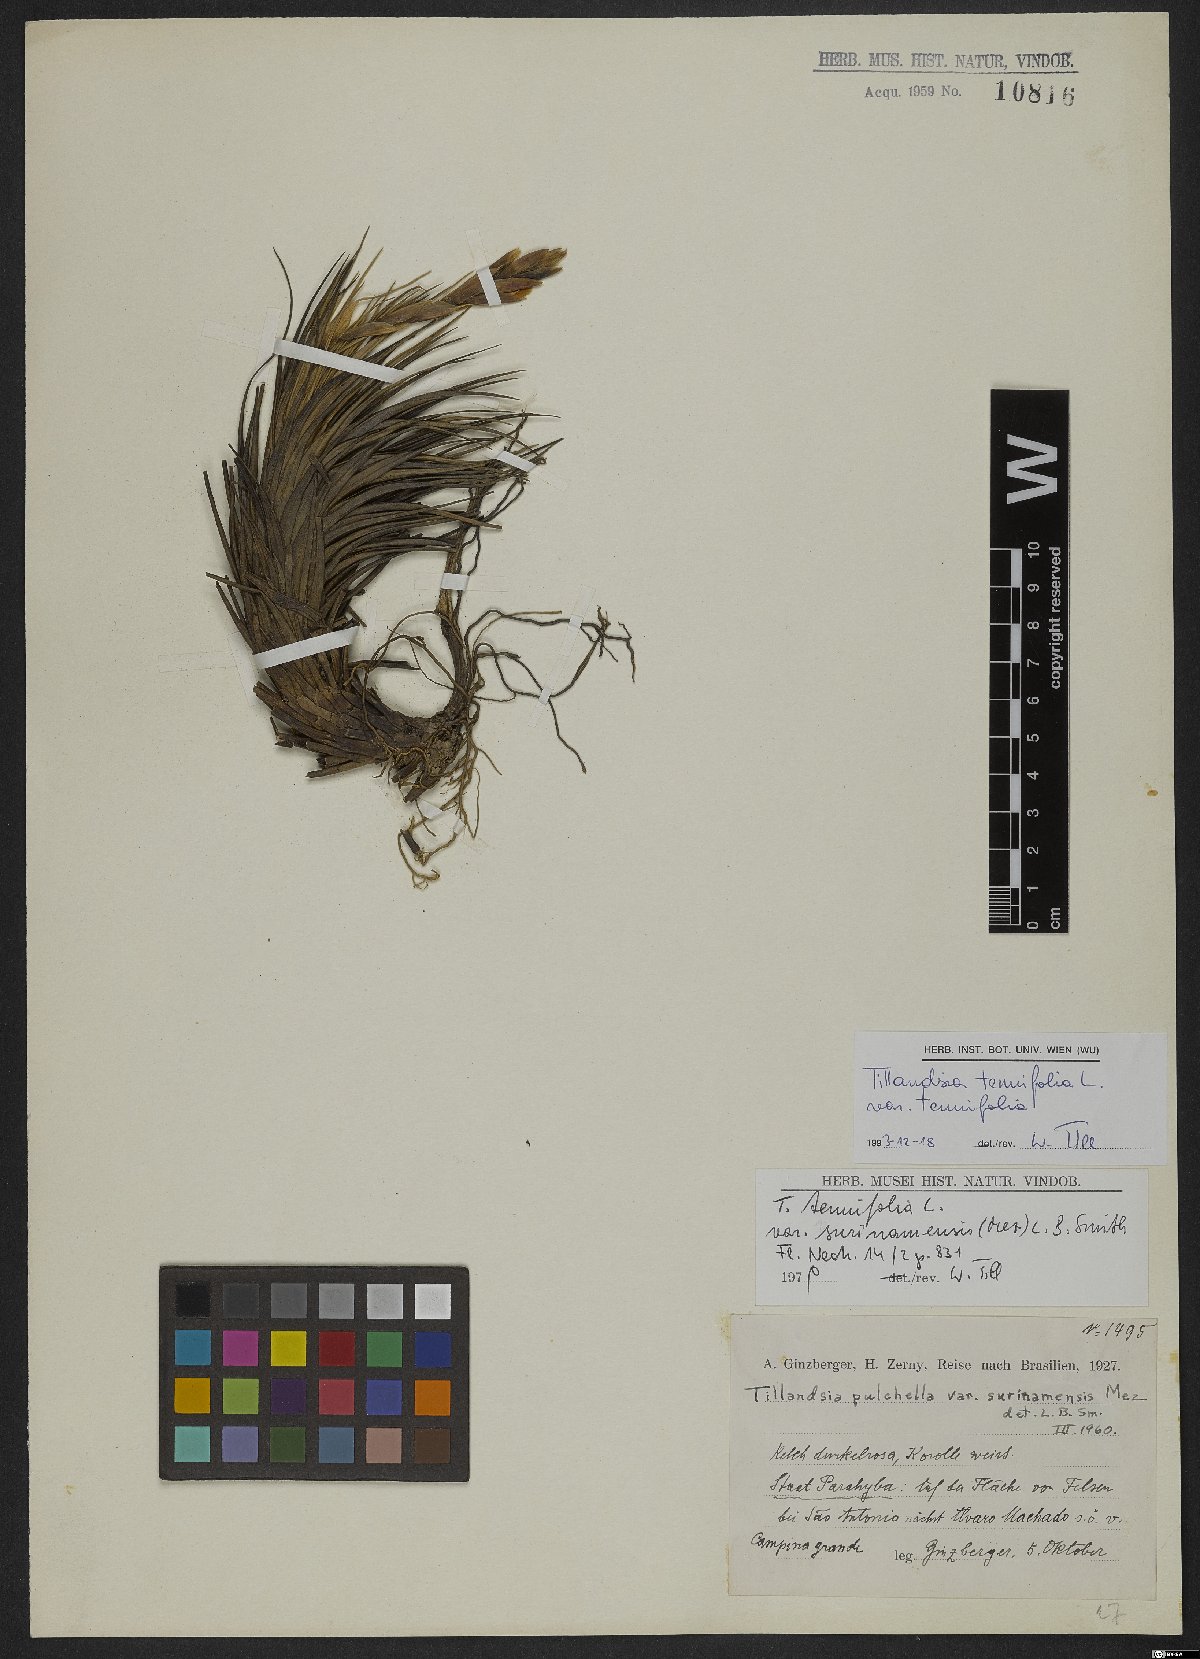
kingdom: Plantae
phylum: Tracheophyta
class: Liliopsida
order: Poales
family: Bromeliaceae
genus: Tillandsia
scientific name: Tillandsia tenuifolia
